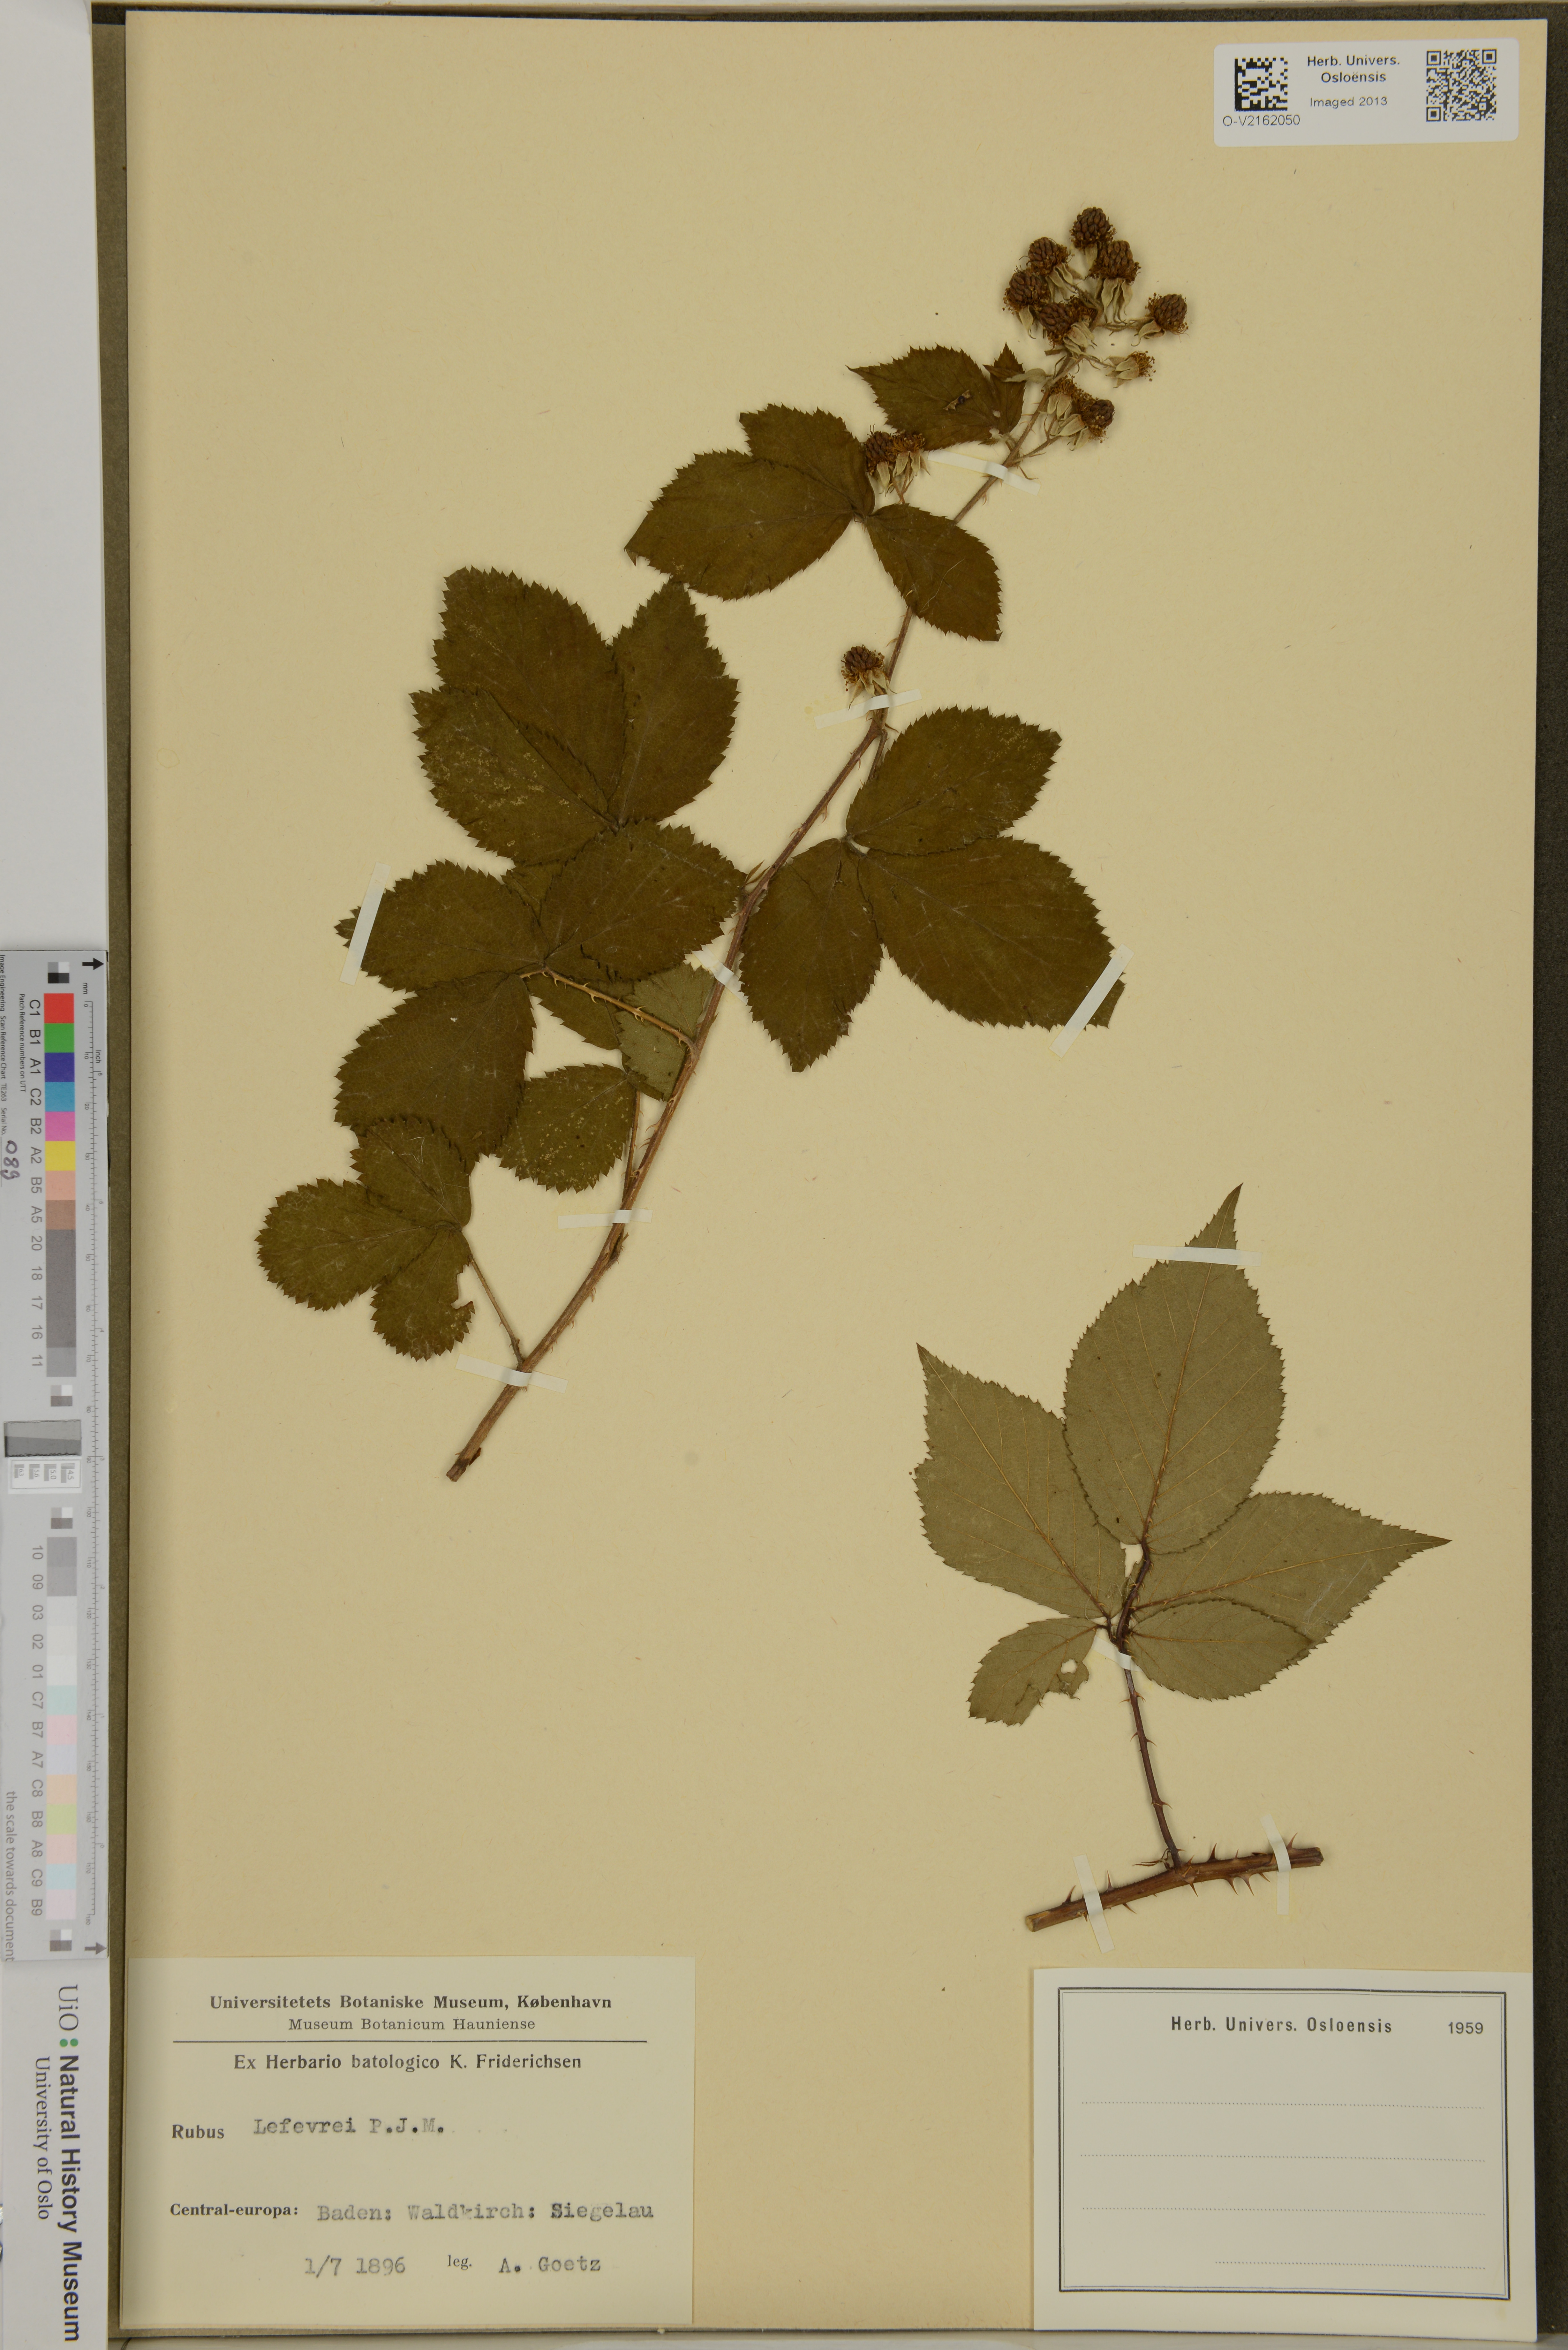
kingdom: Plantae
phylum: Tracheophyta
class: Magnoliopsida
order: Rosales
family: Rosaceae
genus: Rubus
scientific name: Rubus lefevrei
